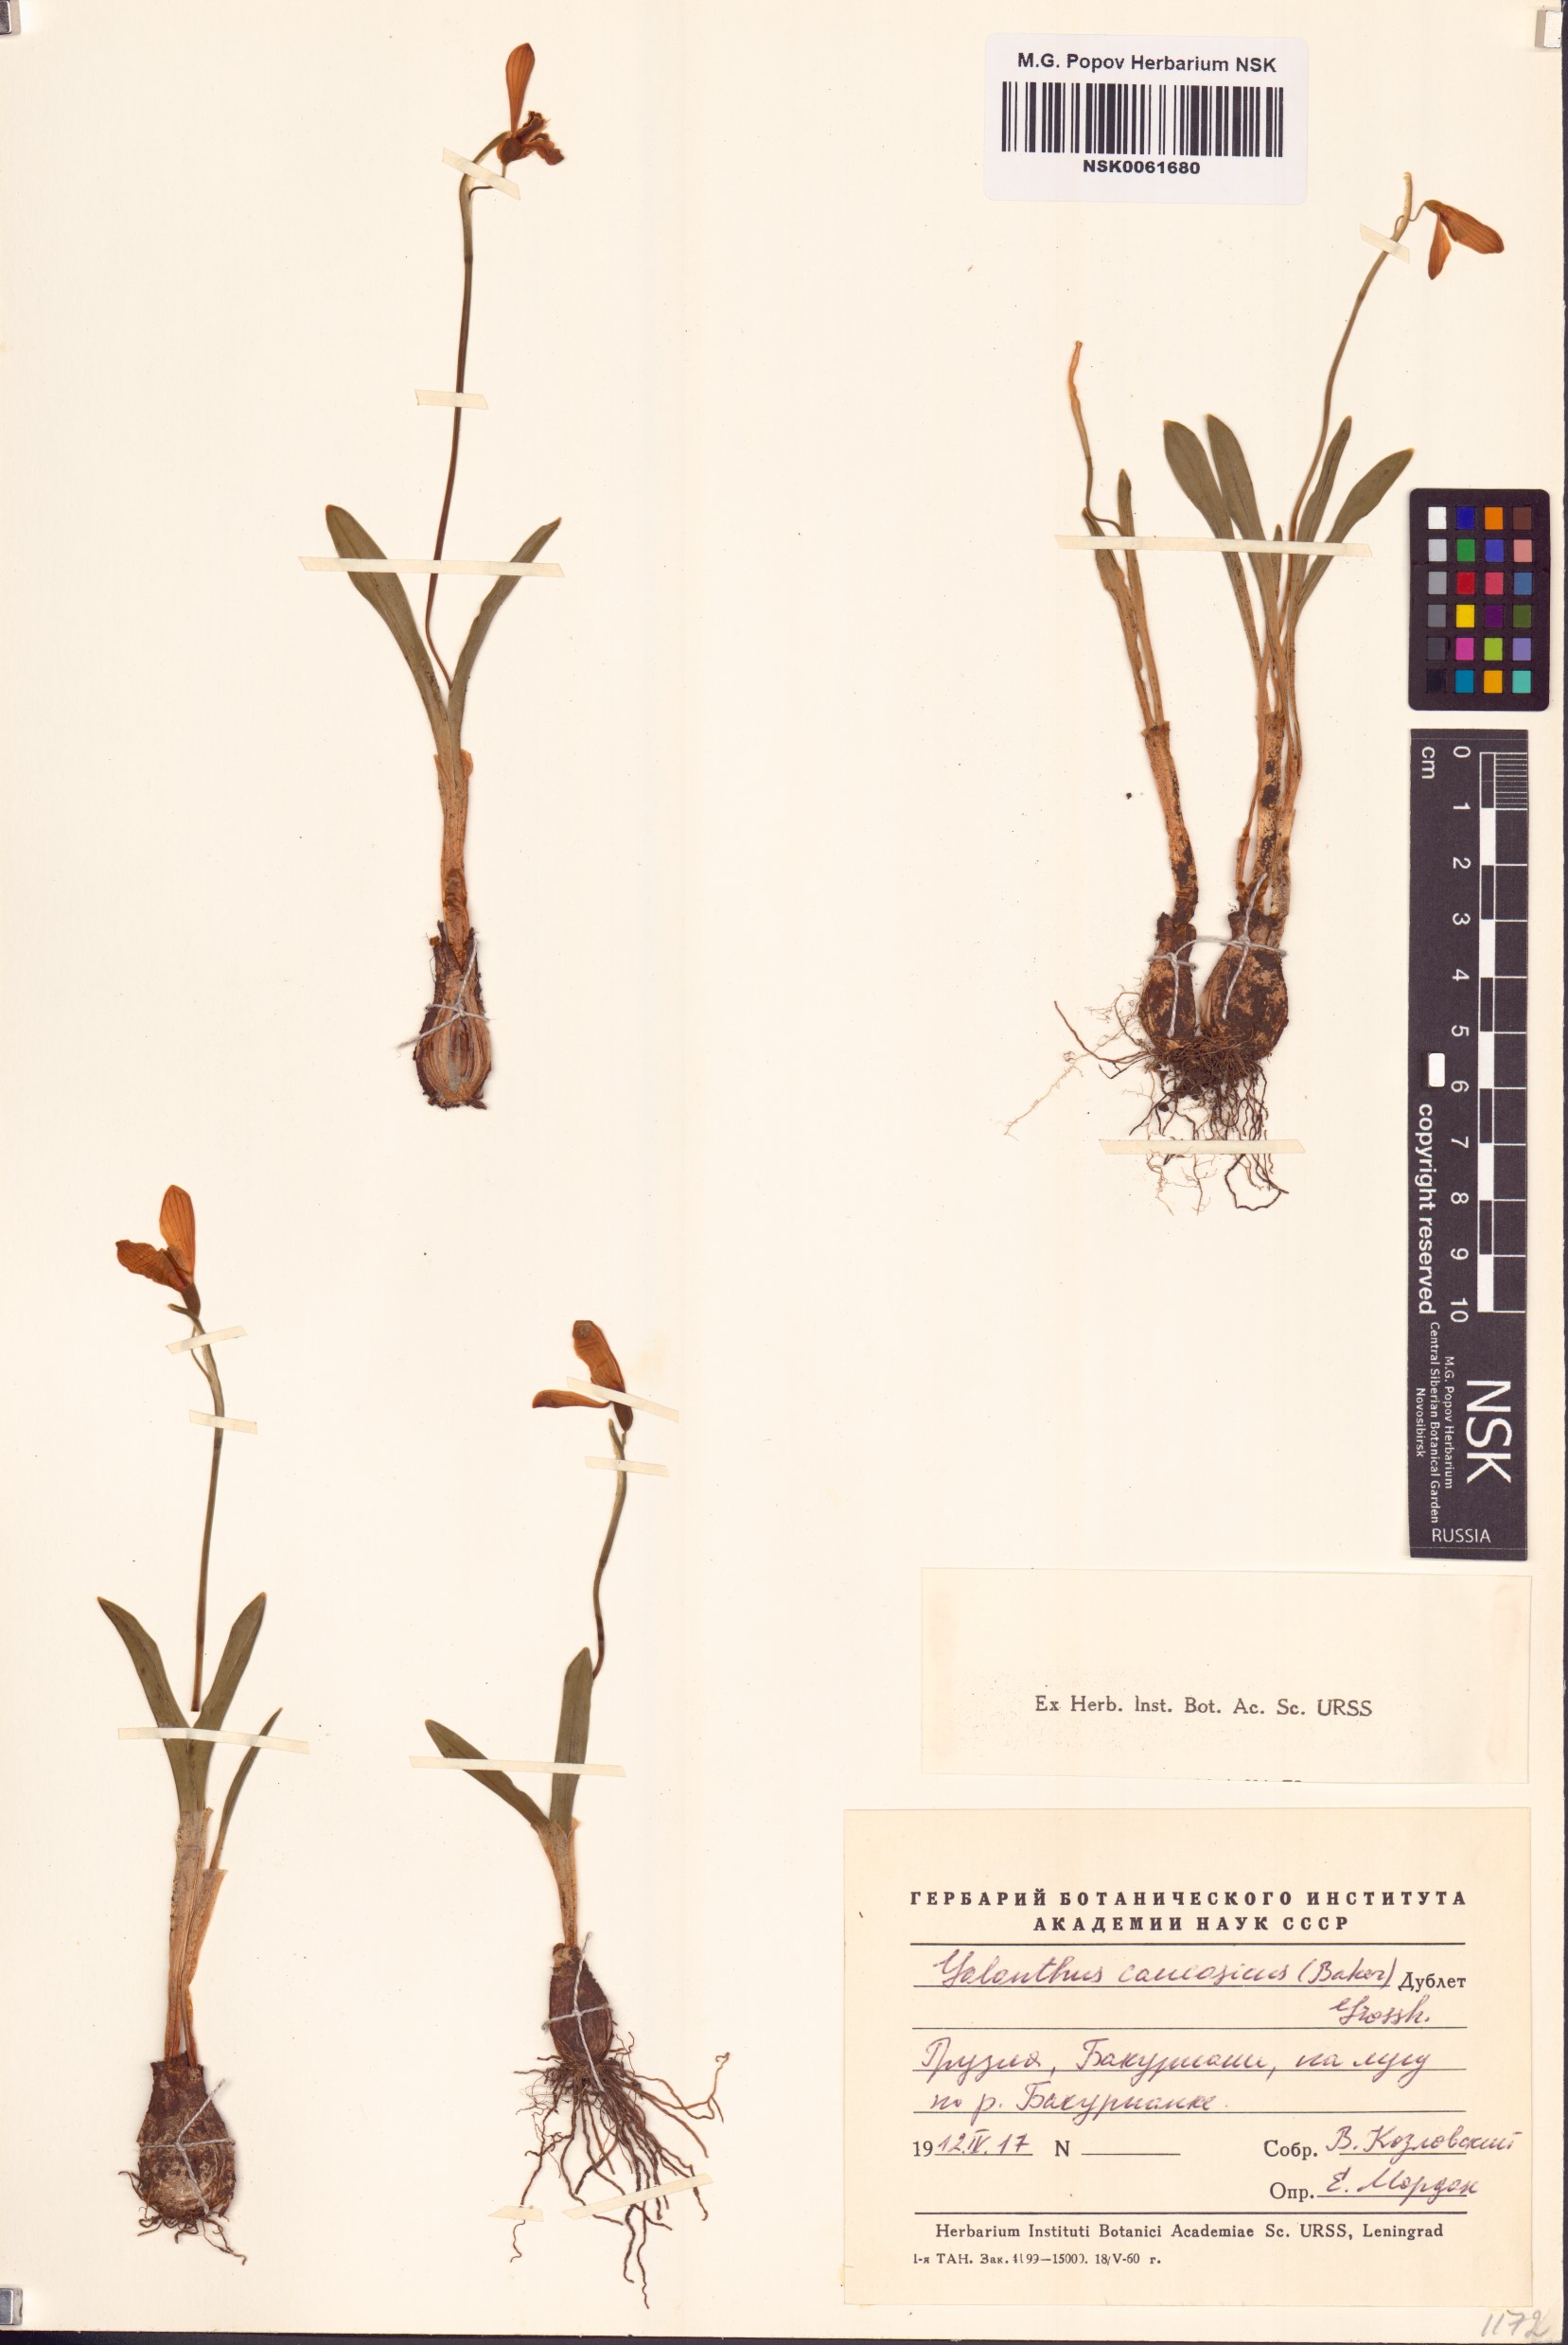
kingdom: Plantae
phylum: Tracheophyta
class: Liliopsida
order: Asparagales
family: Amaryllidaceae
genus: Galanthus
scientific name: Galanthus alpinus
